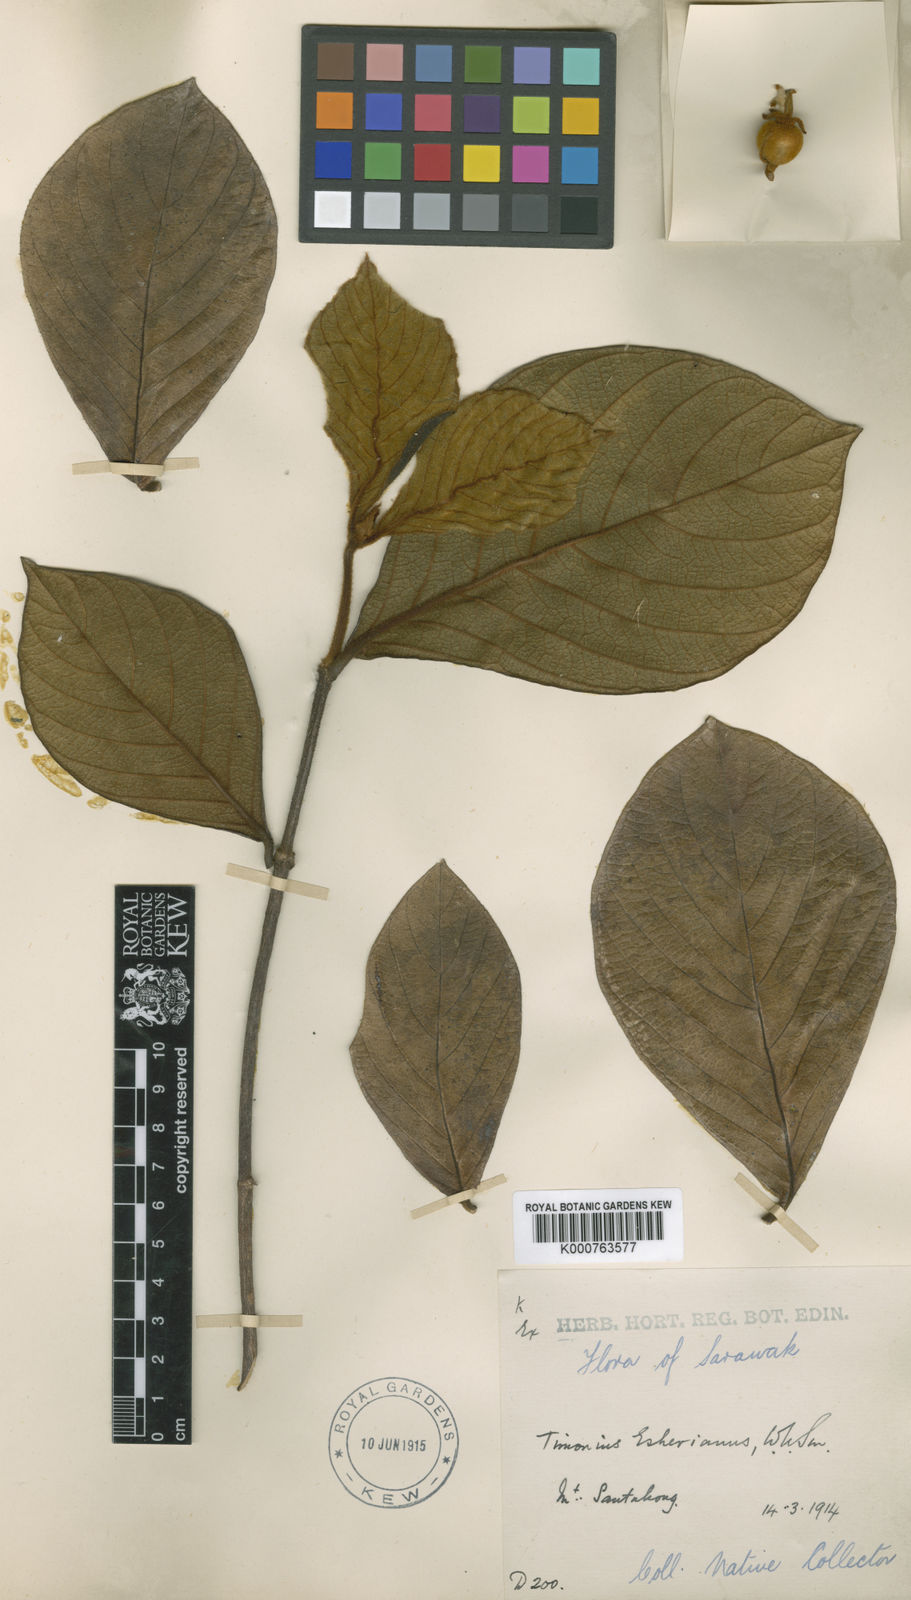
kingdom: Plantae
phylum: Tracheophyta
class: Magnoliopsida
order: Gentianales
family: Rubiaceae
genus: Timonius
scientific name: Timonius esherianus
